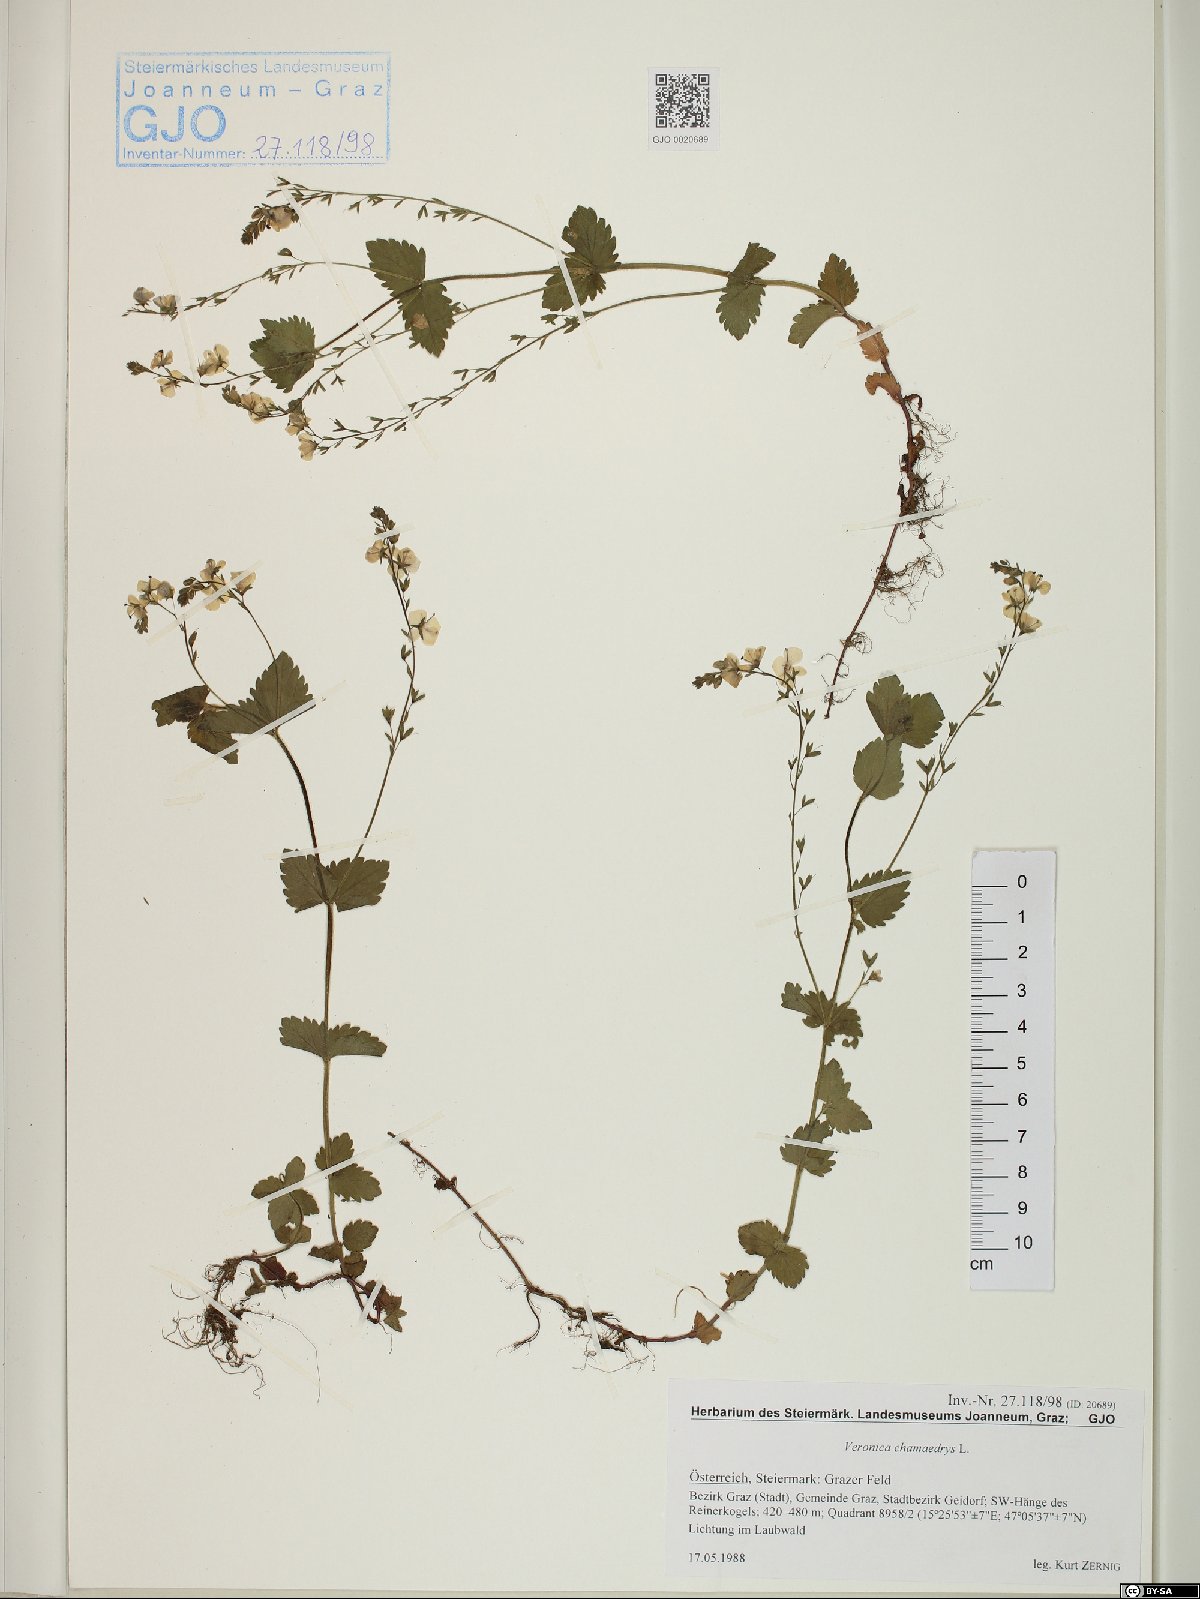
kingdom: Plantae
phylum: Tracheophyta
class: Magnoliopsida
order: Lamiales
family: Plantaginaceae
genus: Veronica
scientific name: Veronica chamaedrys
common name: Germander speedwell
